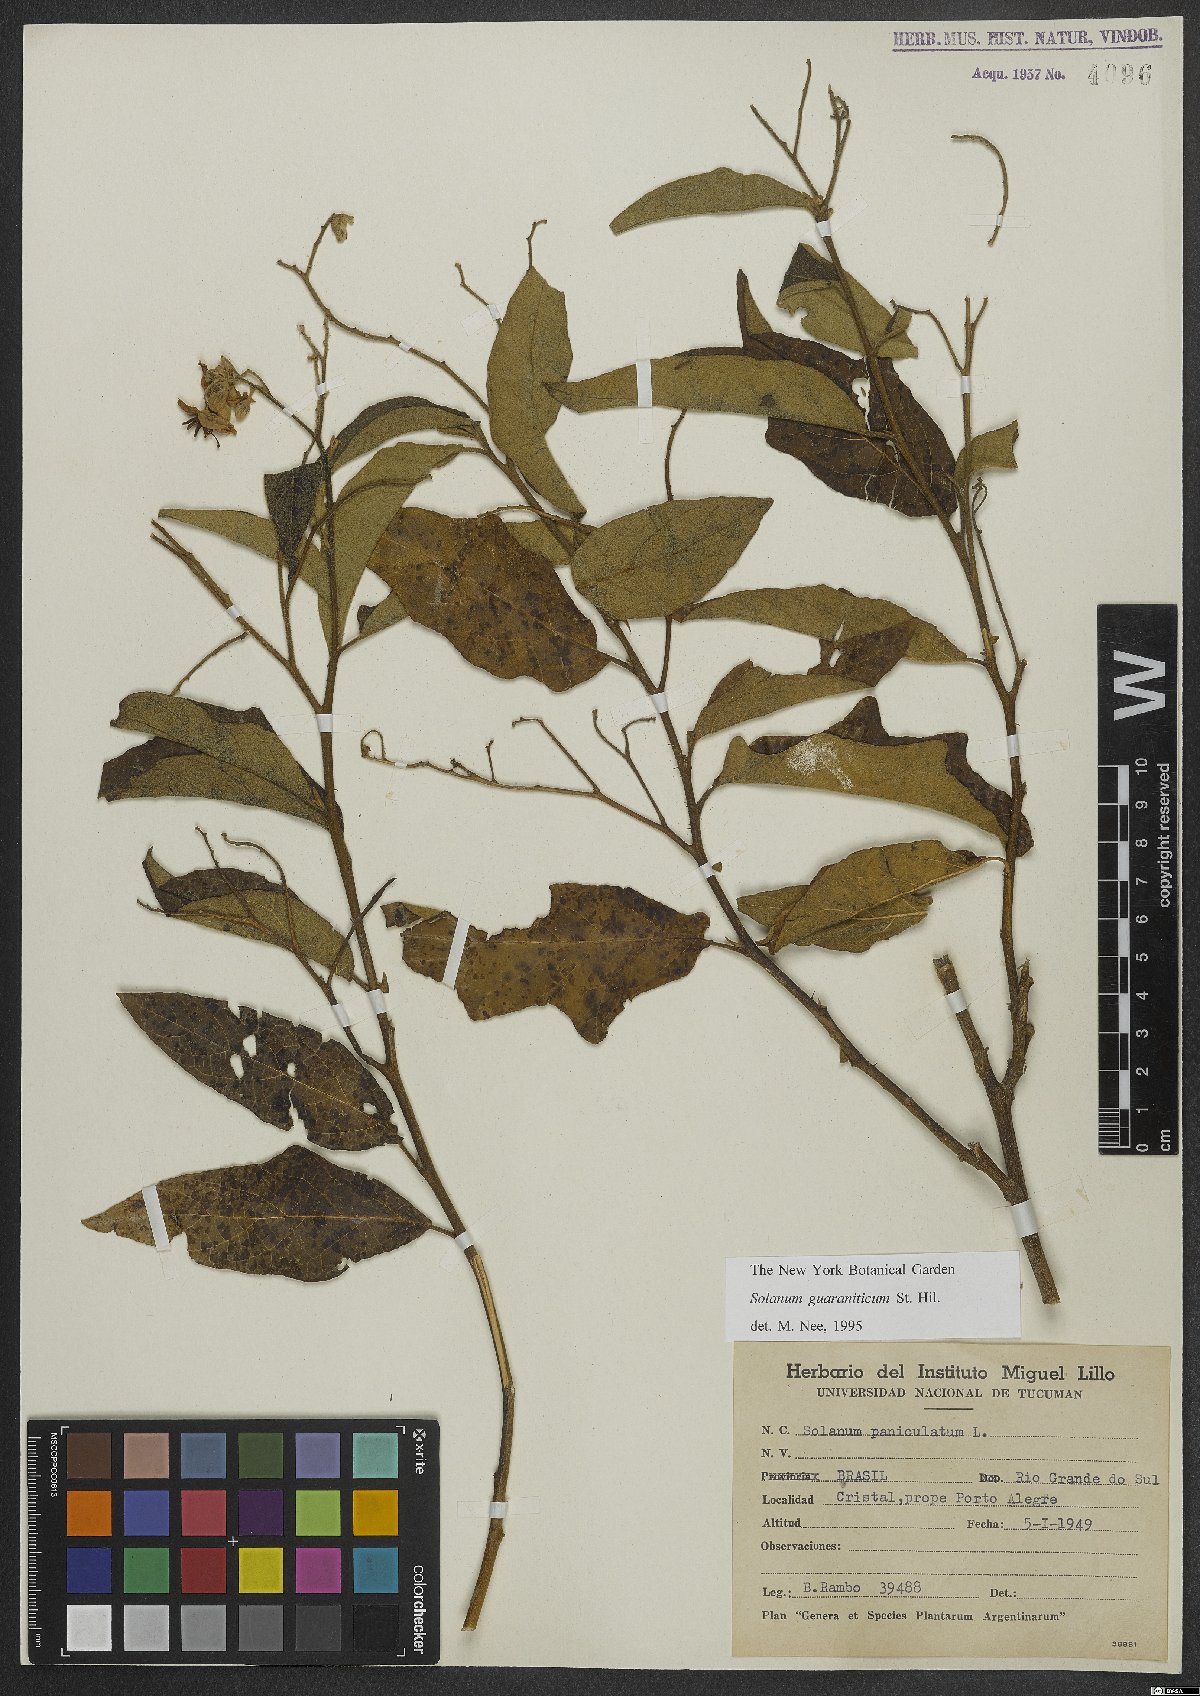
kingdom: Plantae
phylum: Tracheophyta
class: Magnoliopsida
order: Solanales
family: Solanaceae
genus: Solanum
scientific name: Solanum guaraniticum
